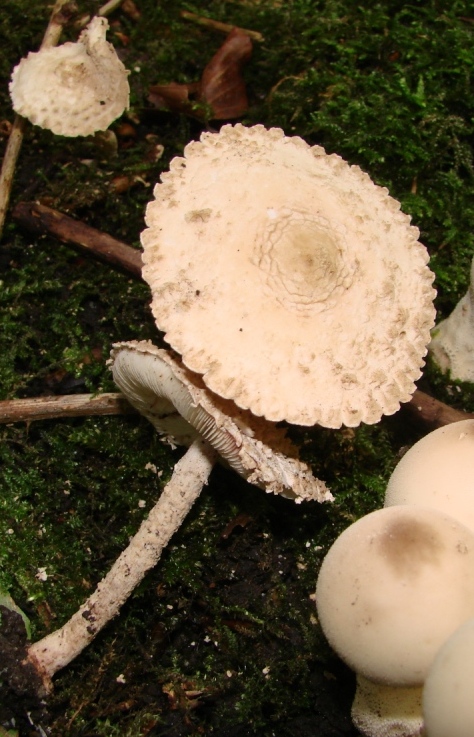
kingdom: Fungi
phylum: Basidiomycota
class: Agaricomycetes
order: Agaricales
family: Agaricaceae
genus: Cystolepiota
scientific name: Cystolepiota adulterina
